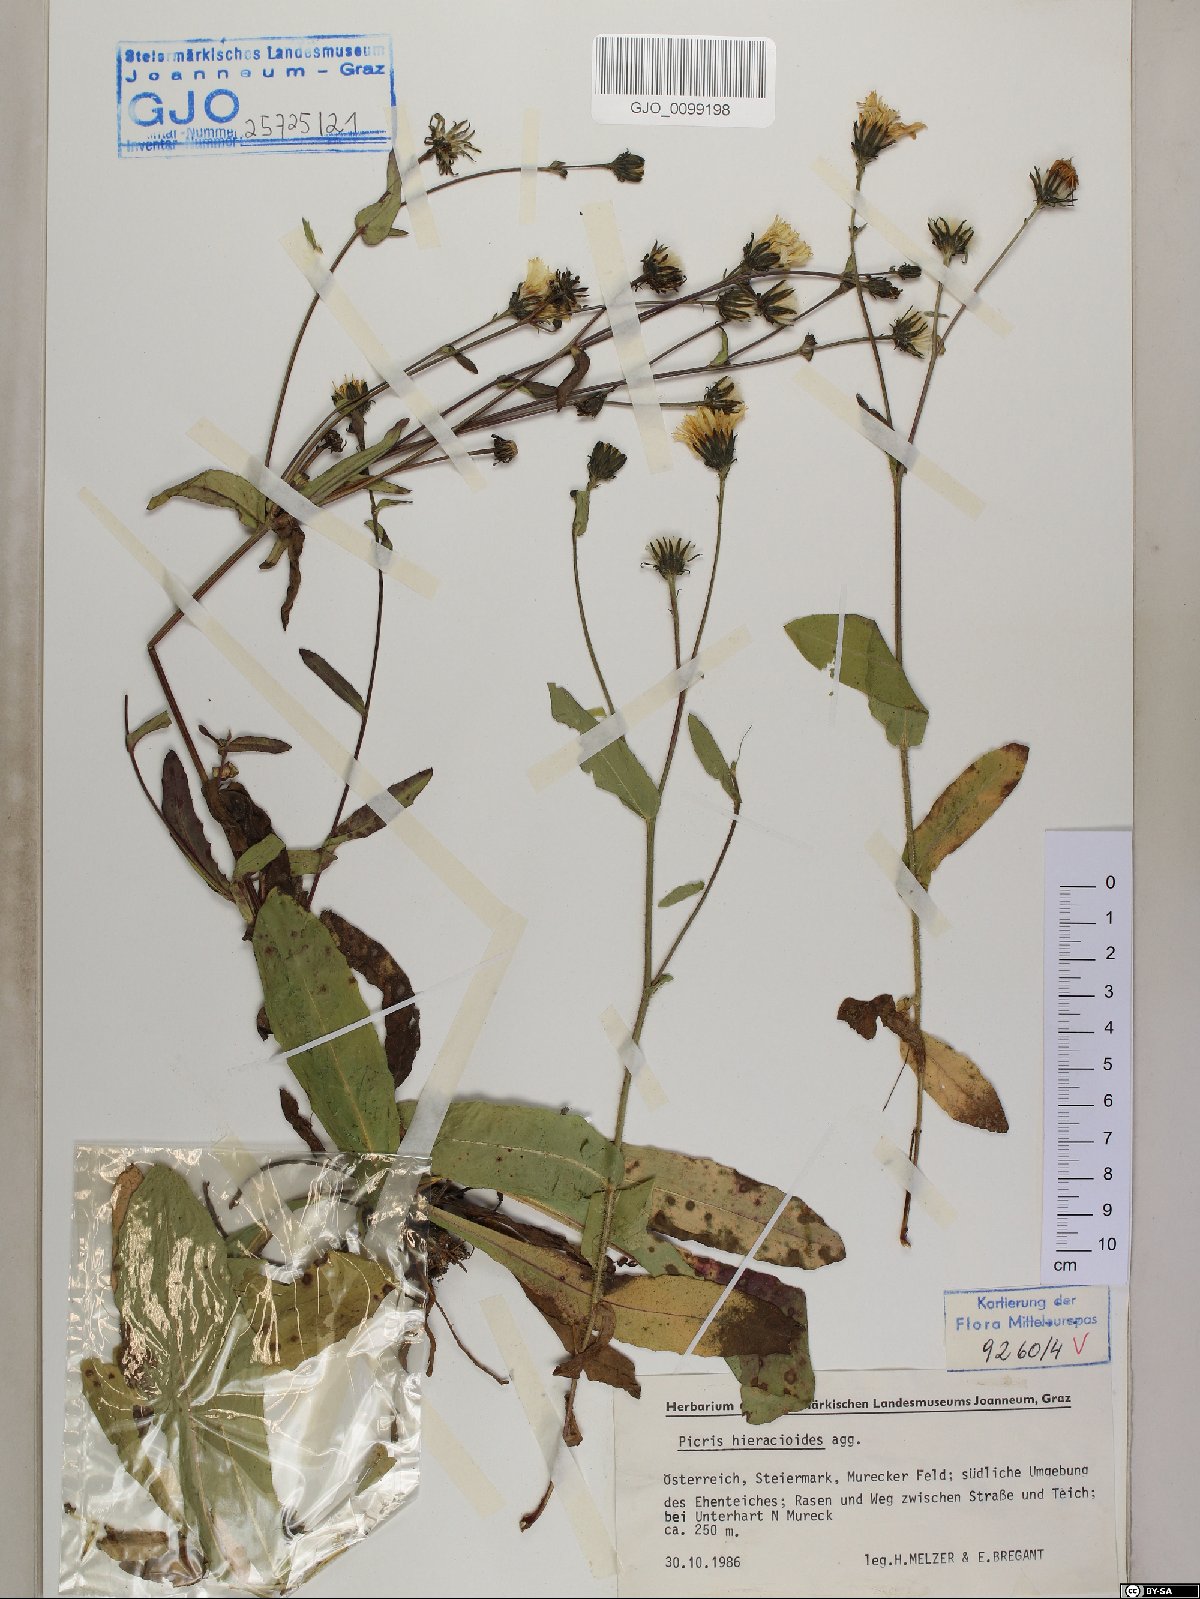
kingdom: Plantae
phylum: Tracheophyta
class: Magnoliopsida
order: Asterales
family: Asteraceae
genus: Picris
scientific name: Picris hieracioides
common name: Hawkweed oxtongue
